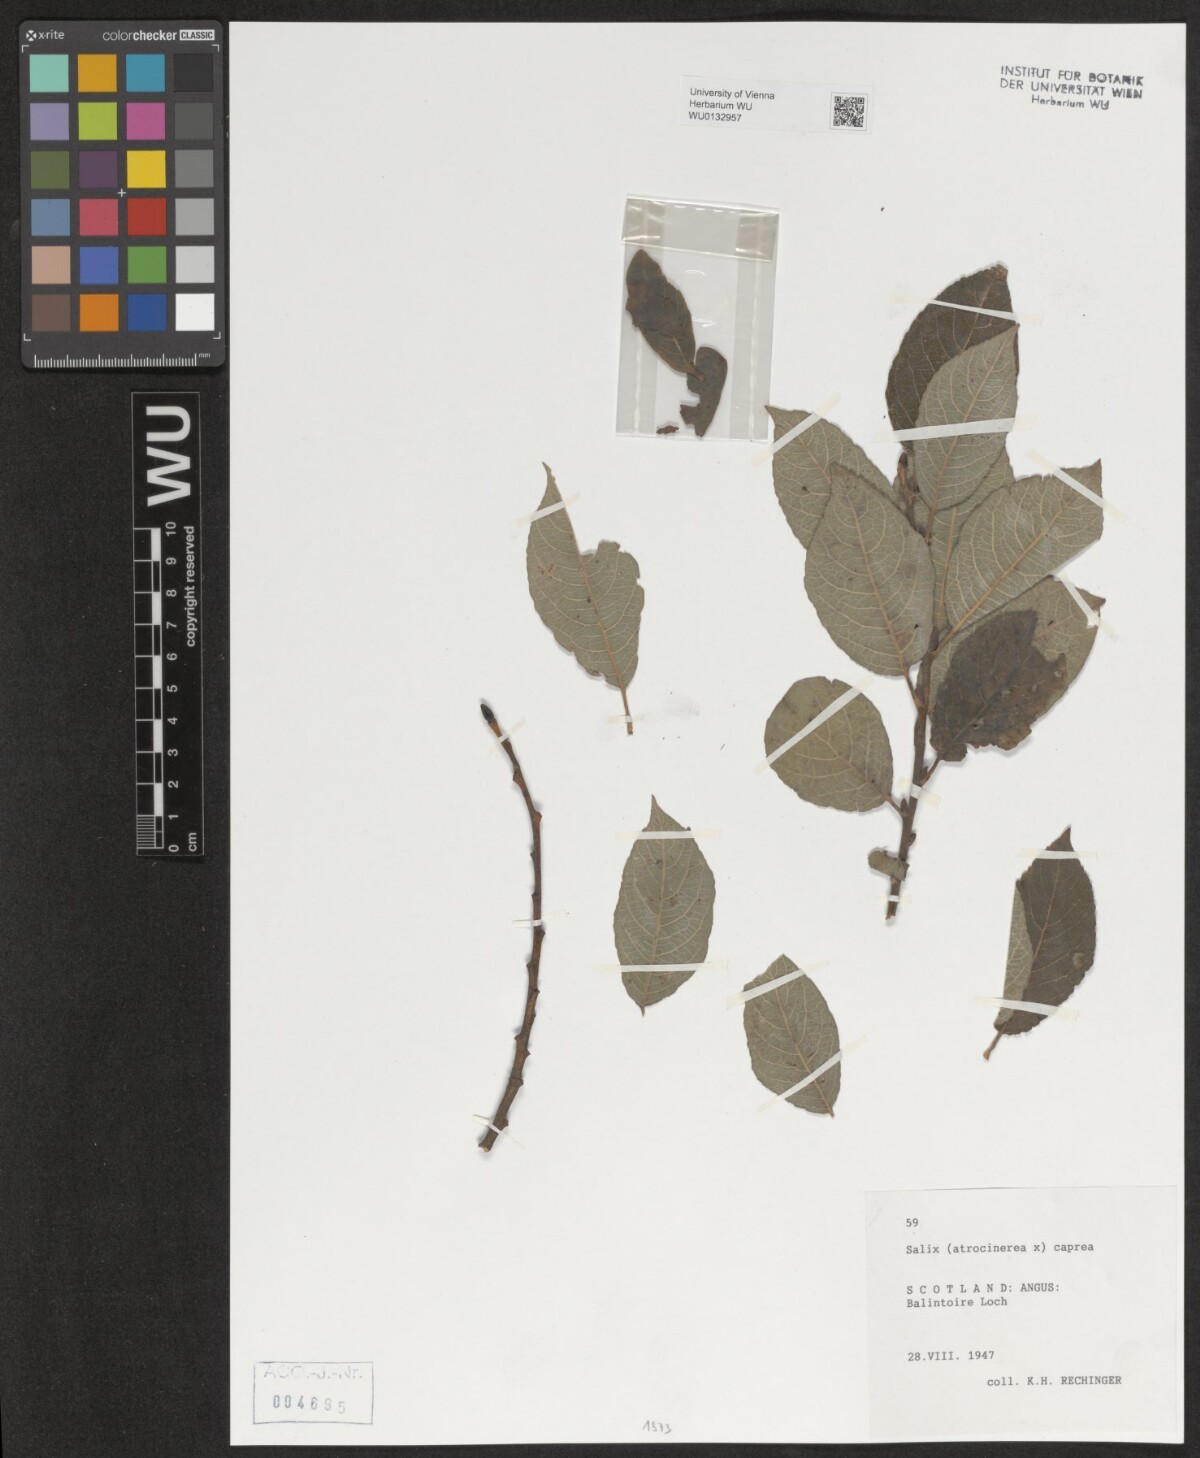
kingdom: Plantae
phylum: Tracheophyta
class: Magnoliopsida
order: Malpighiales
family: Salicaceae
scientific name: Salicaceae
